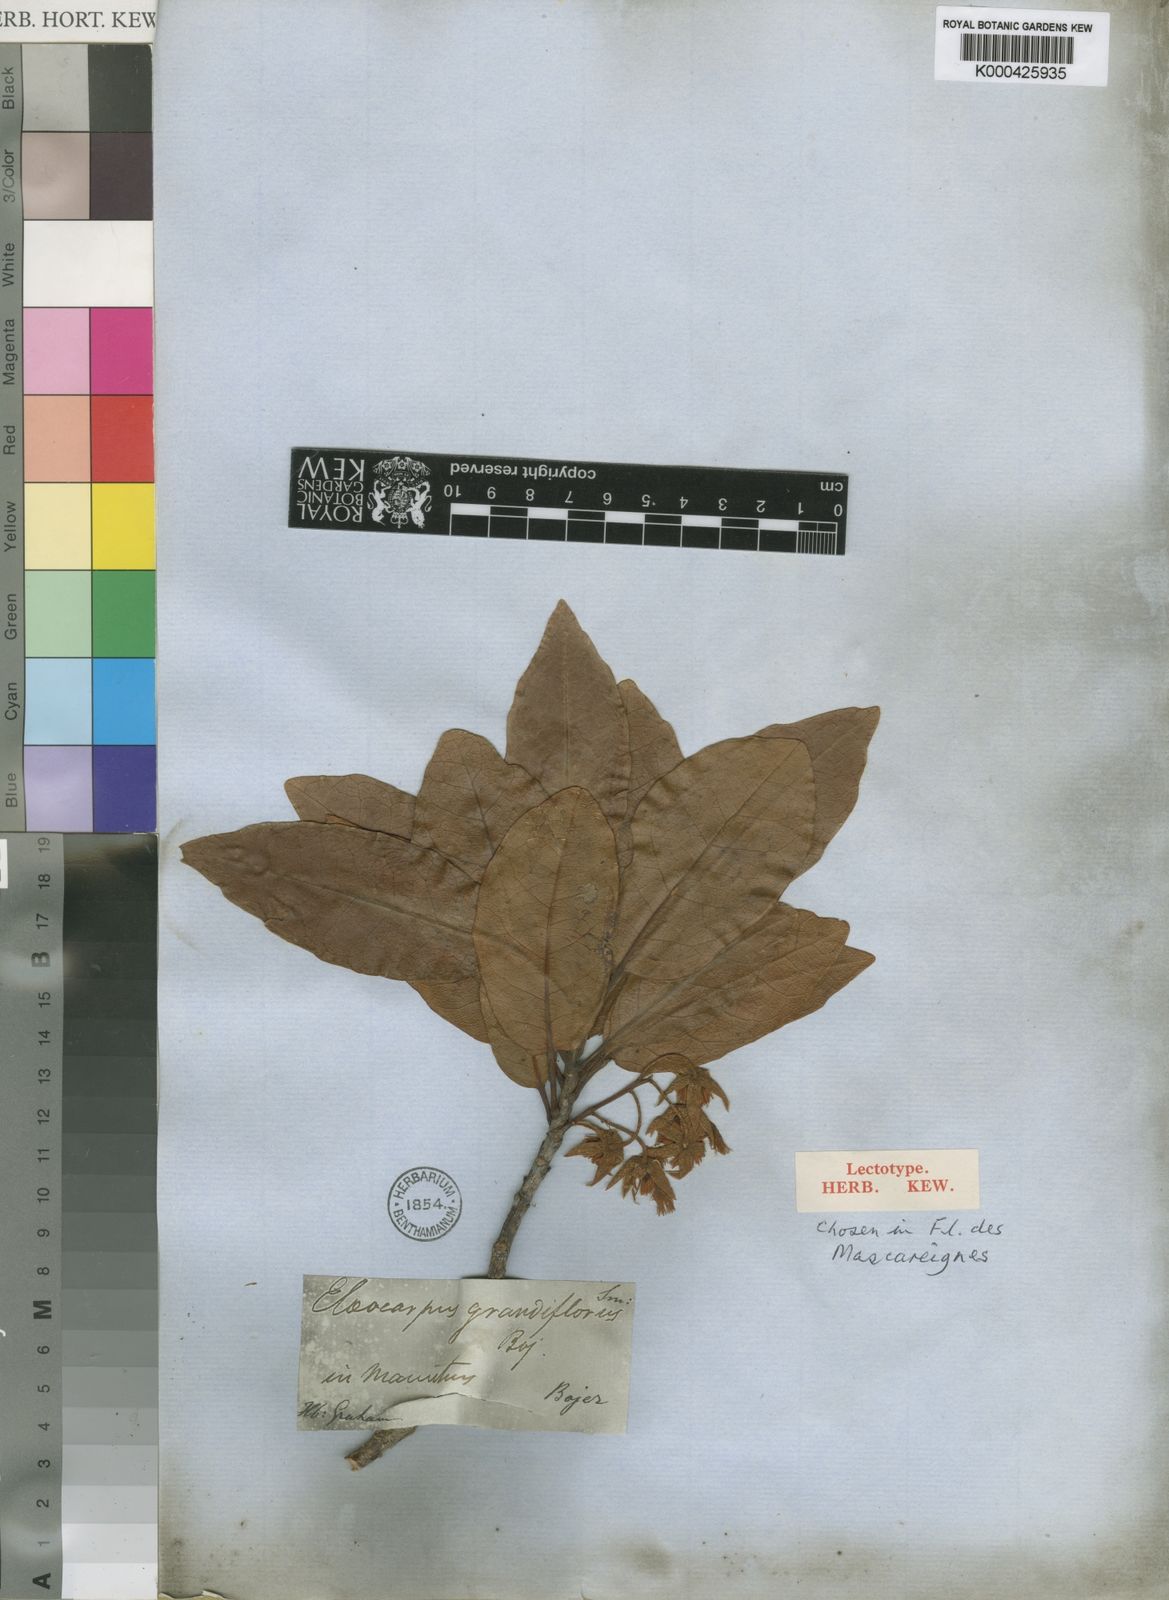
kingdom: Plantae
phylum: Tracheophyta
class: Magnoliopsida
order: Oxalidales
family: Elaeocarpaceae
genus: Elaeocarpus
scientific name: Elaeocarpus
